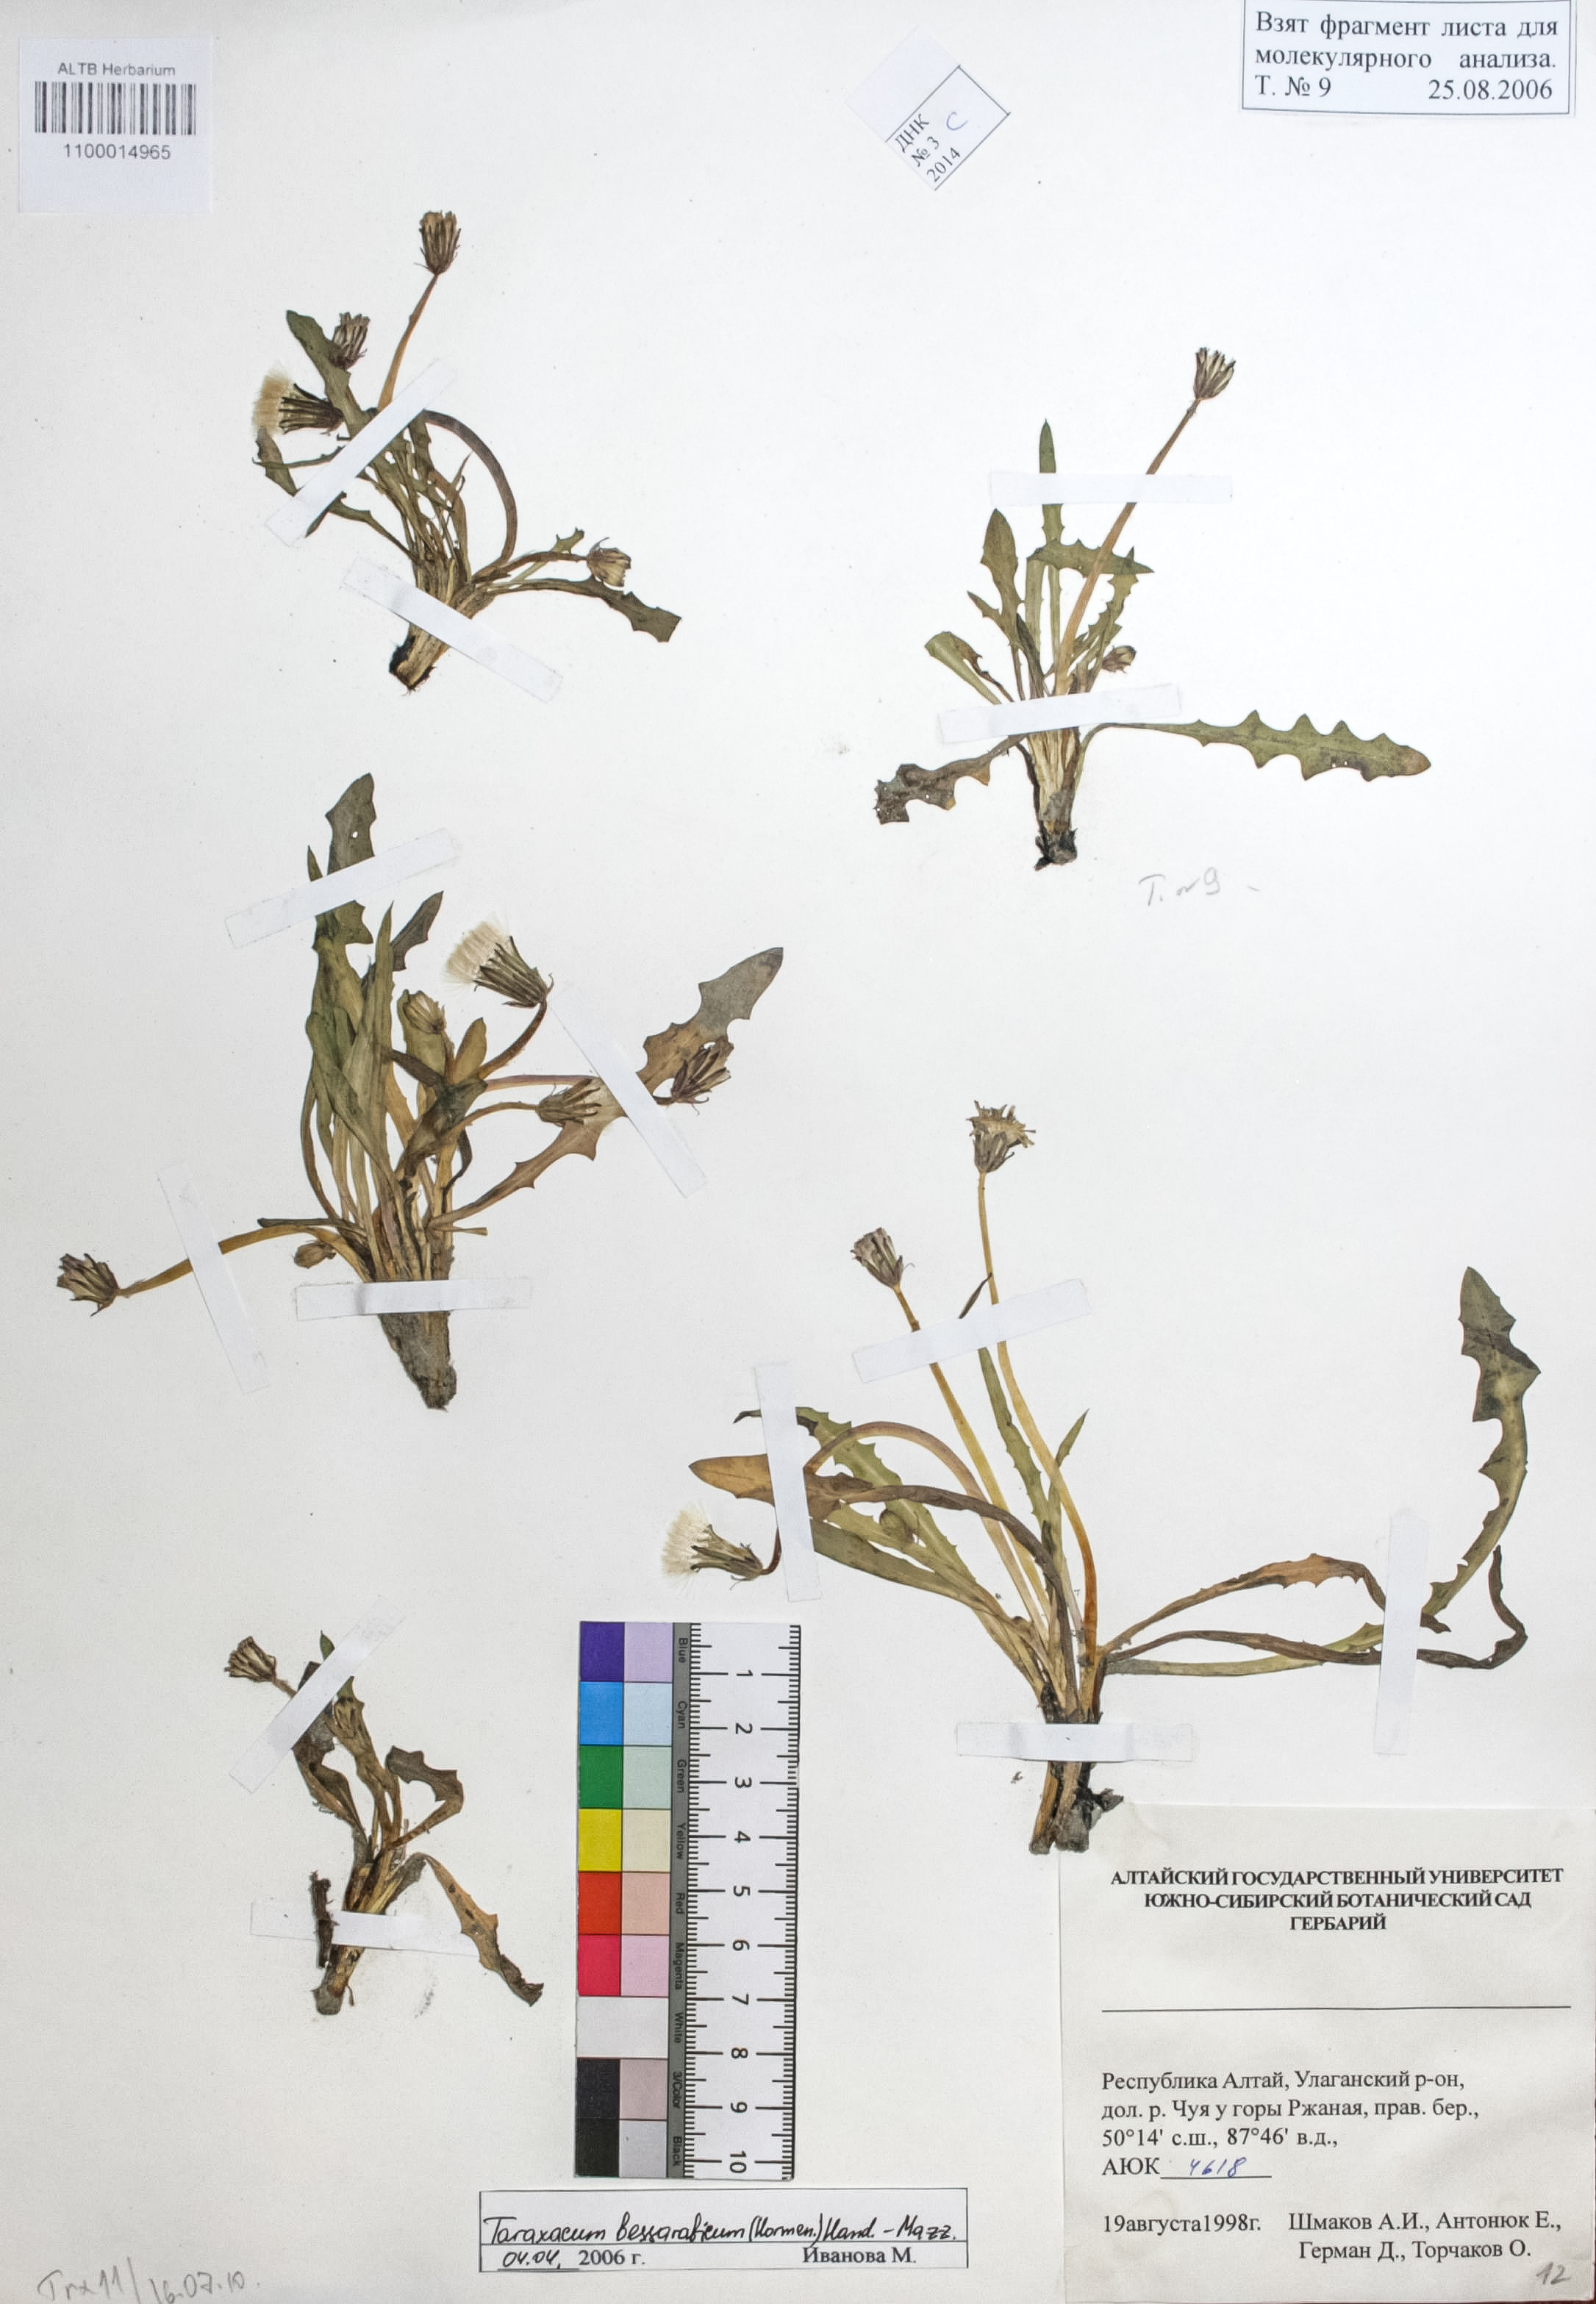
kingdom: Plantae
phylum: Tracheophyta
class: Magnoliopsida
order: Asterales
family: Asteraceae
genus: Taraxacum
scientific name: Taraxacum bessarabicum
